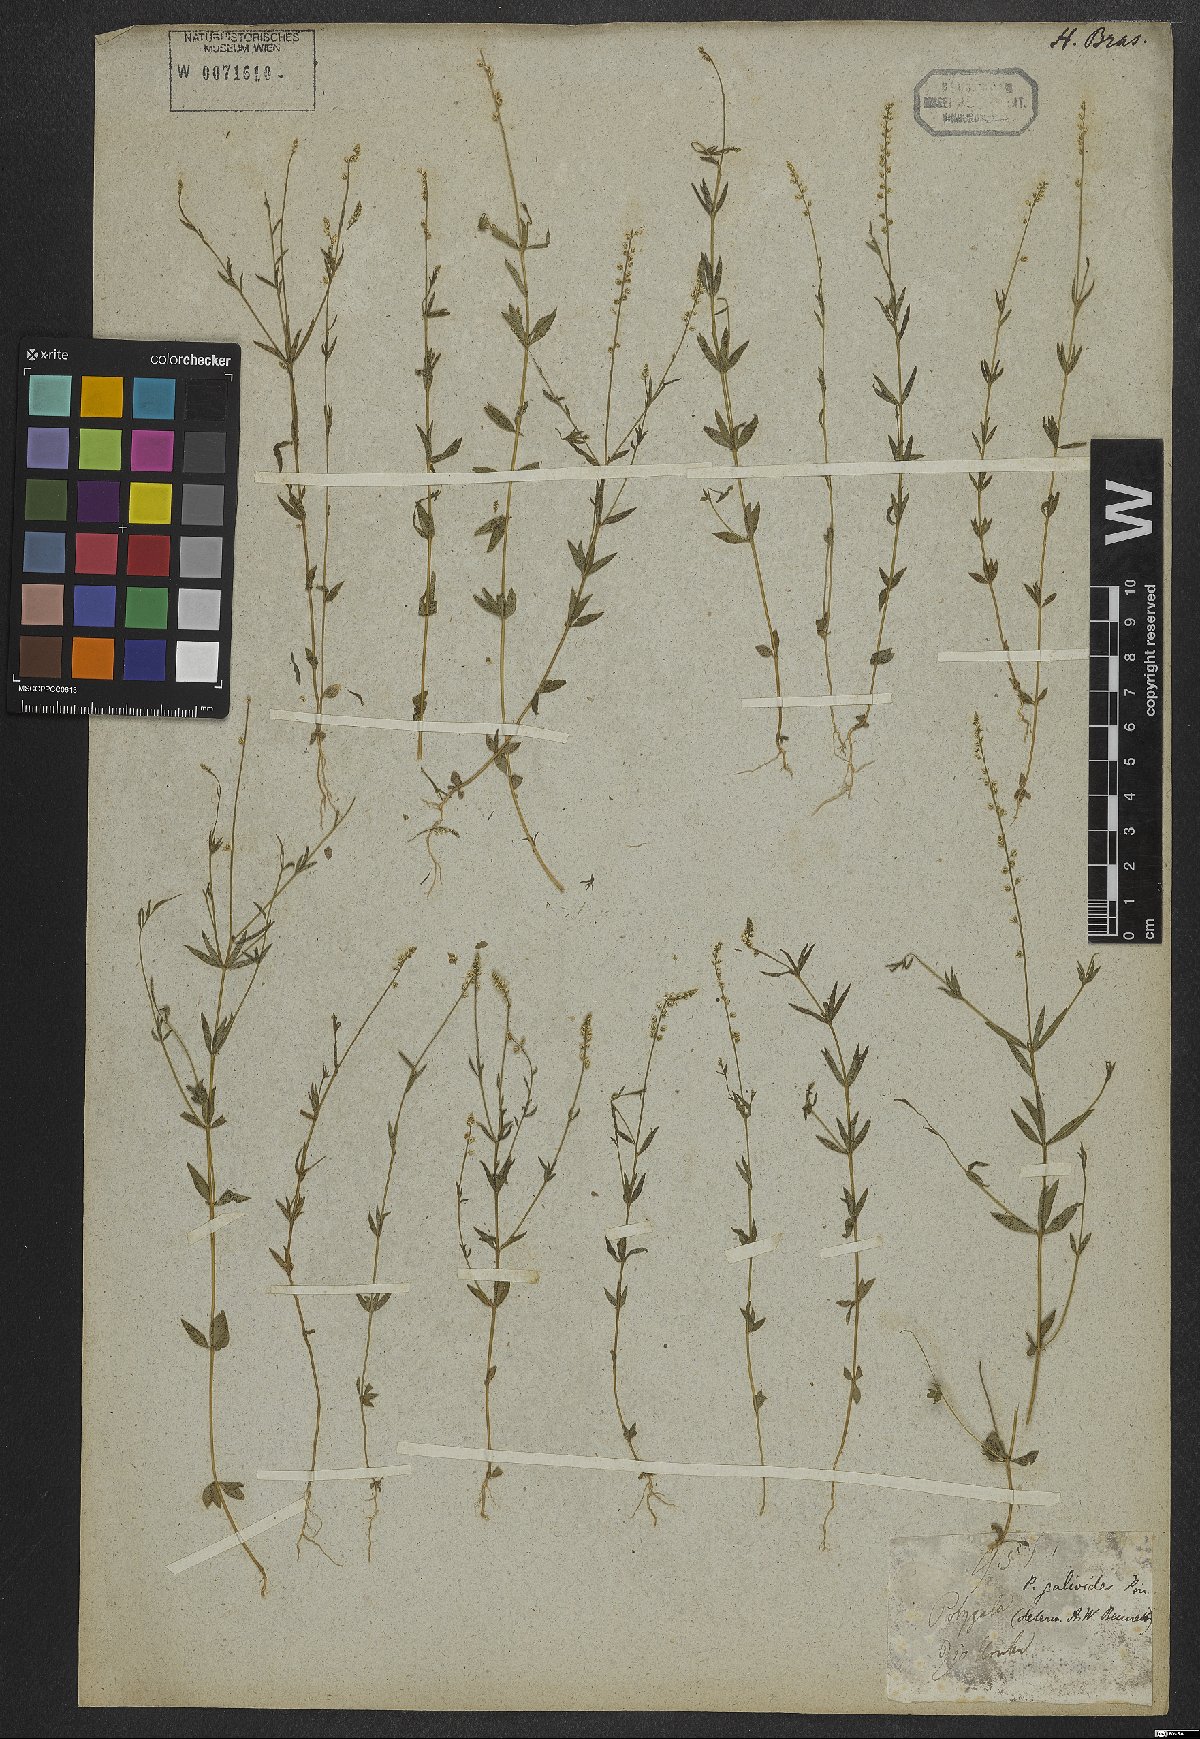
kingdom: Plantae
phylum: Tracheophyta
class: Magnoliopsida
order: Fabales
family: Polygalaceae
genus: Polygala
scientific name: Polygala galioides
